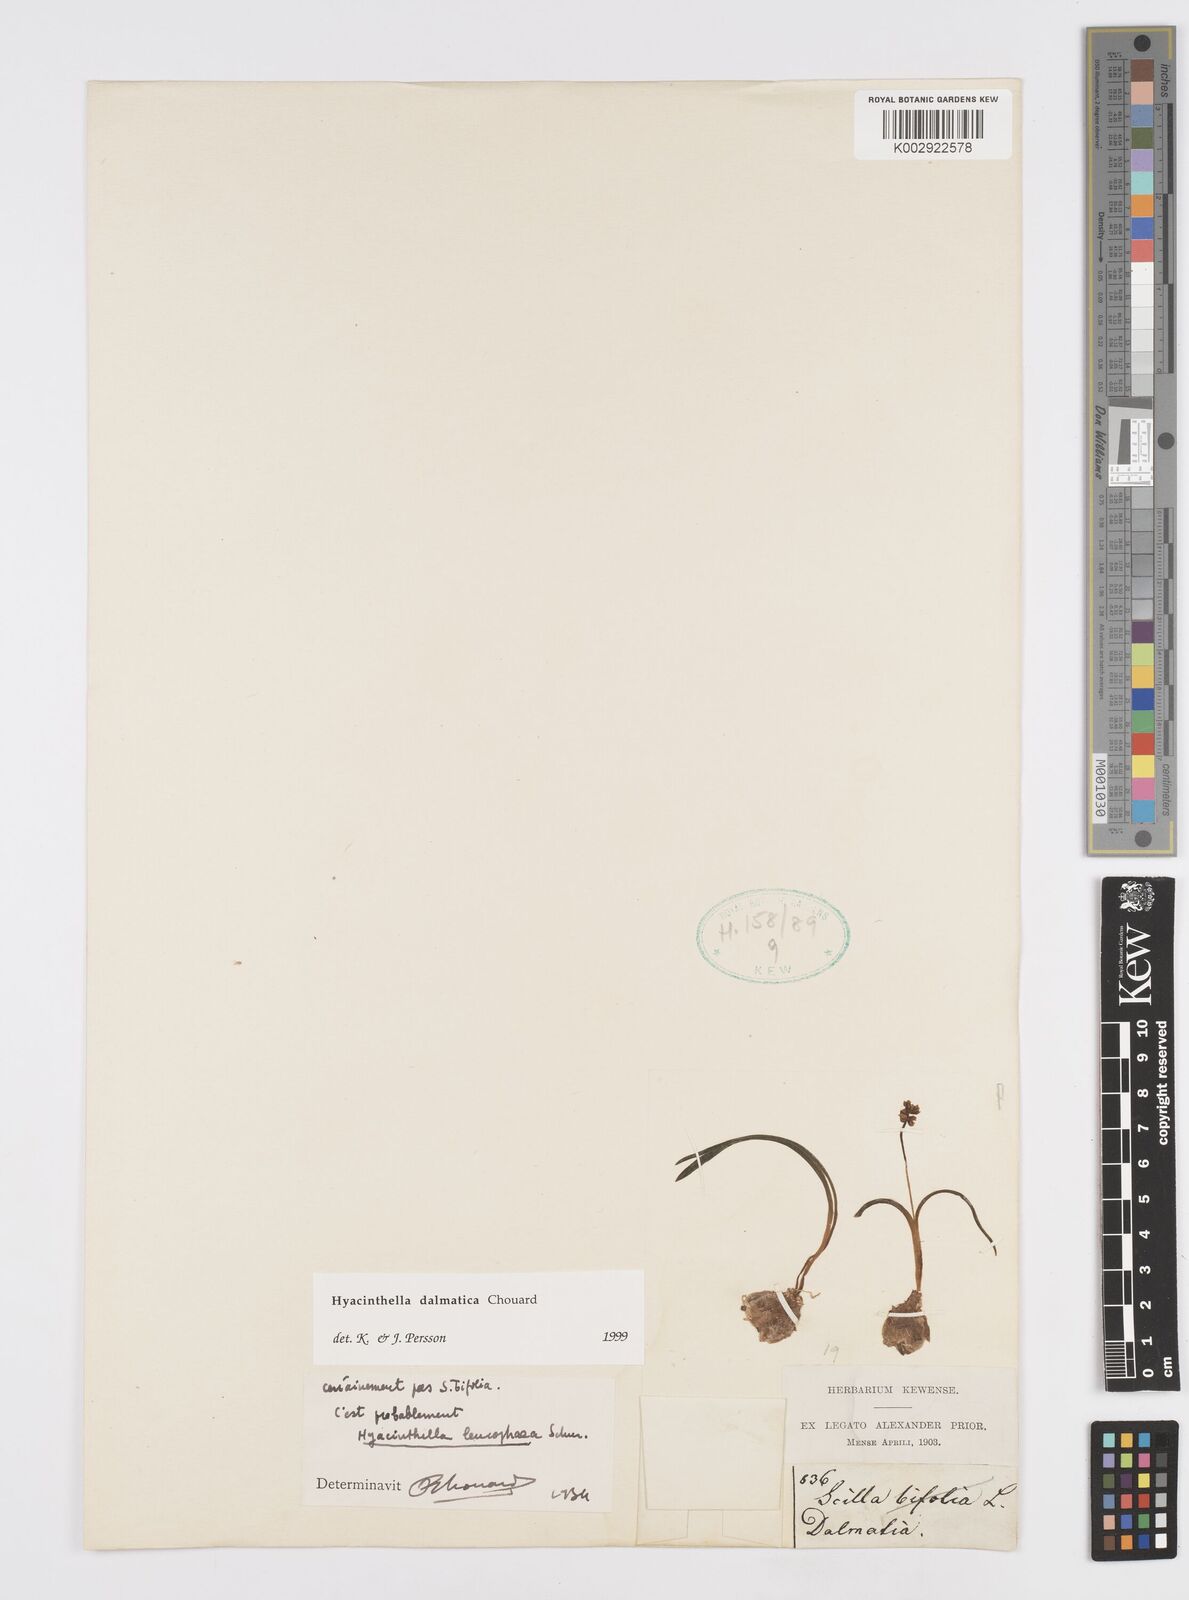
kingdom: Plantae
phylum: Tracheophyta
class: Liliopsida
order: Asparagales
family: Asparagaceae
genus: Hyacinthella
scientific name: Hyacinthella leucophaea
